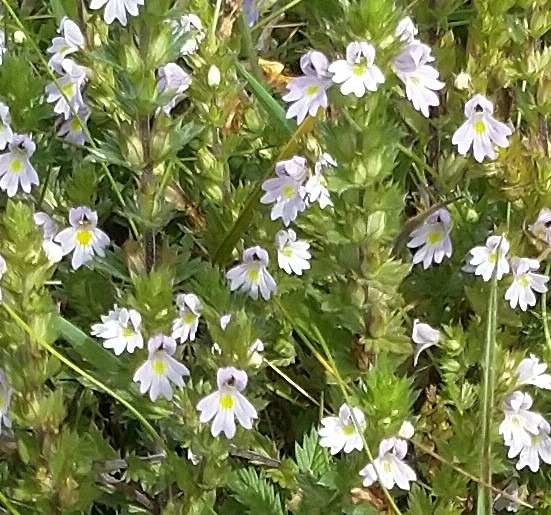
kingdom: Plantae
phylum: Tracheophyta
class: Magnoliopsida
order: Lamiales
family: Orobanchaceae
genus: Euphrasia
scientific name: Euphrasia stricta
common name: Spids øjentrøst
